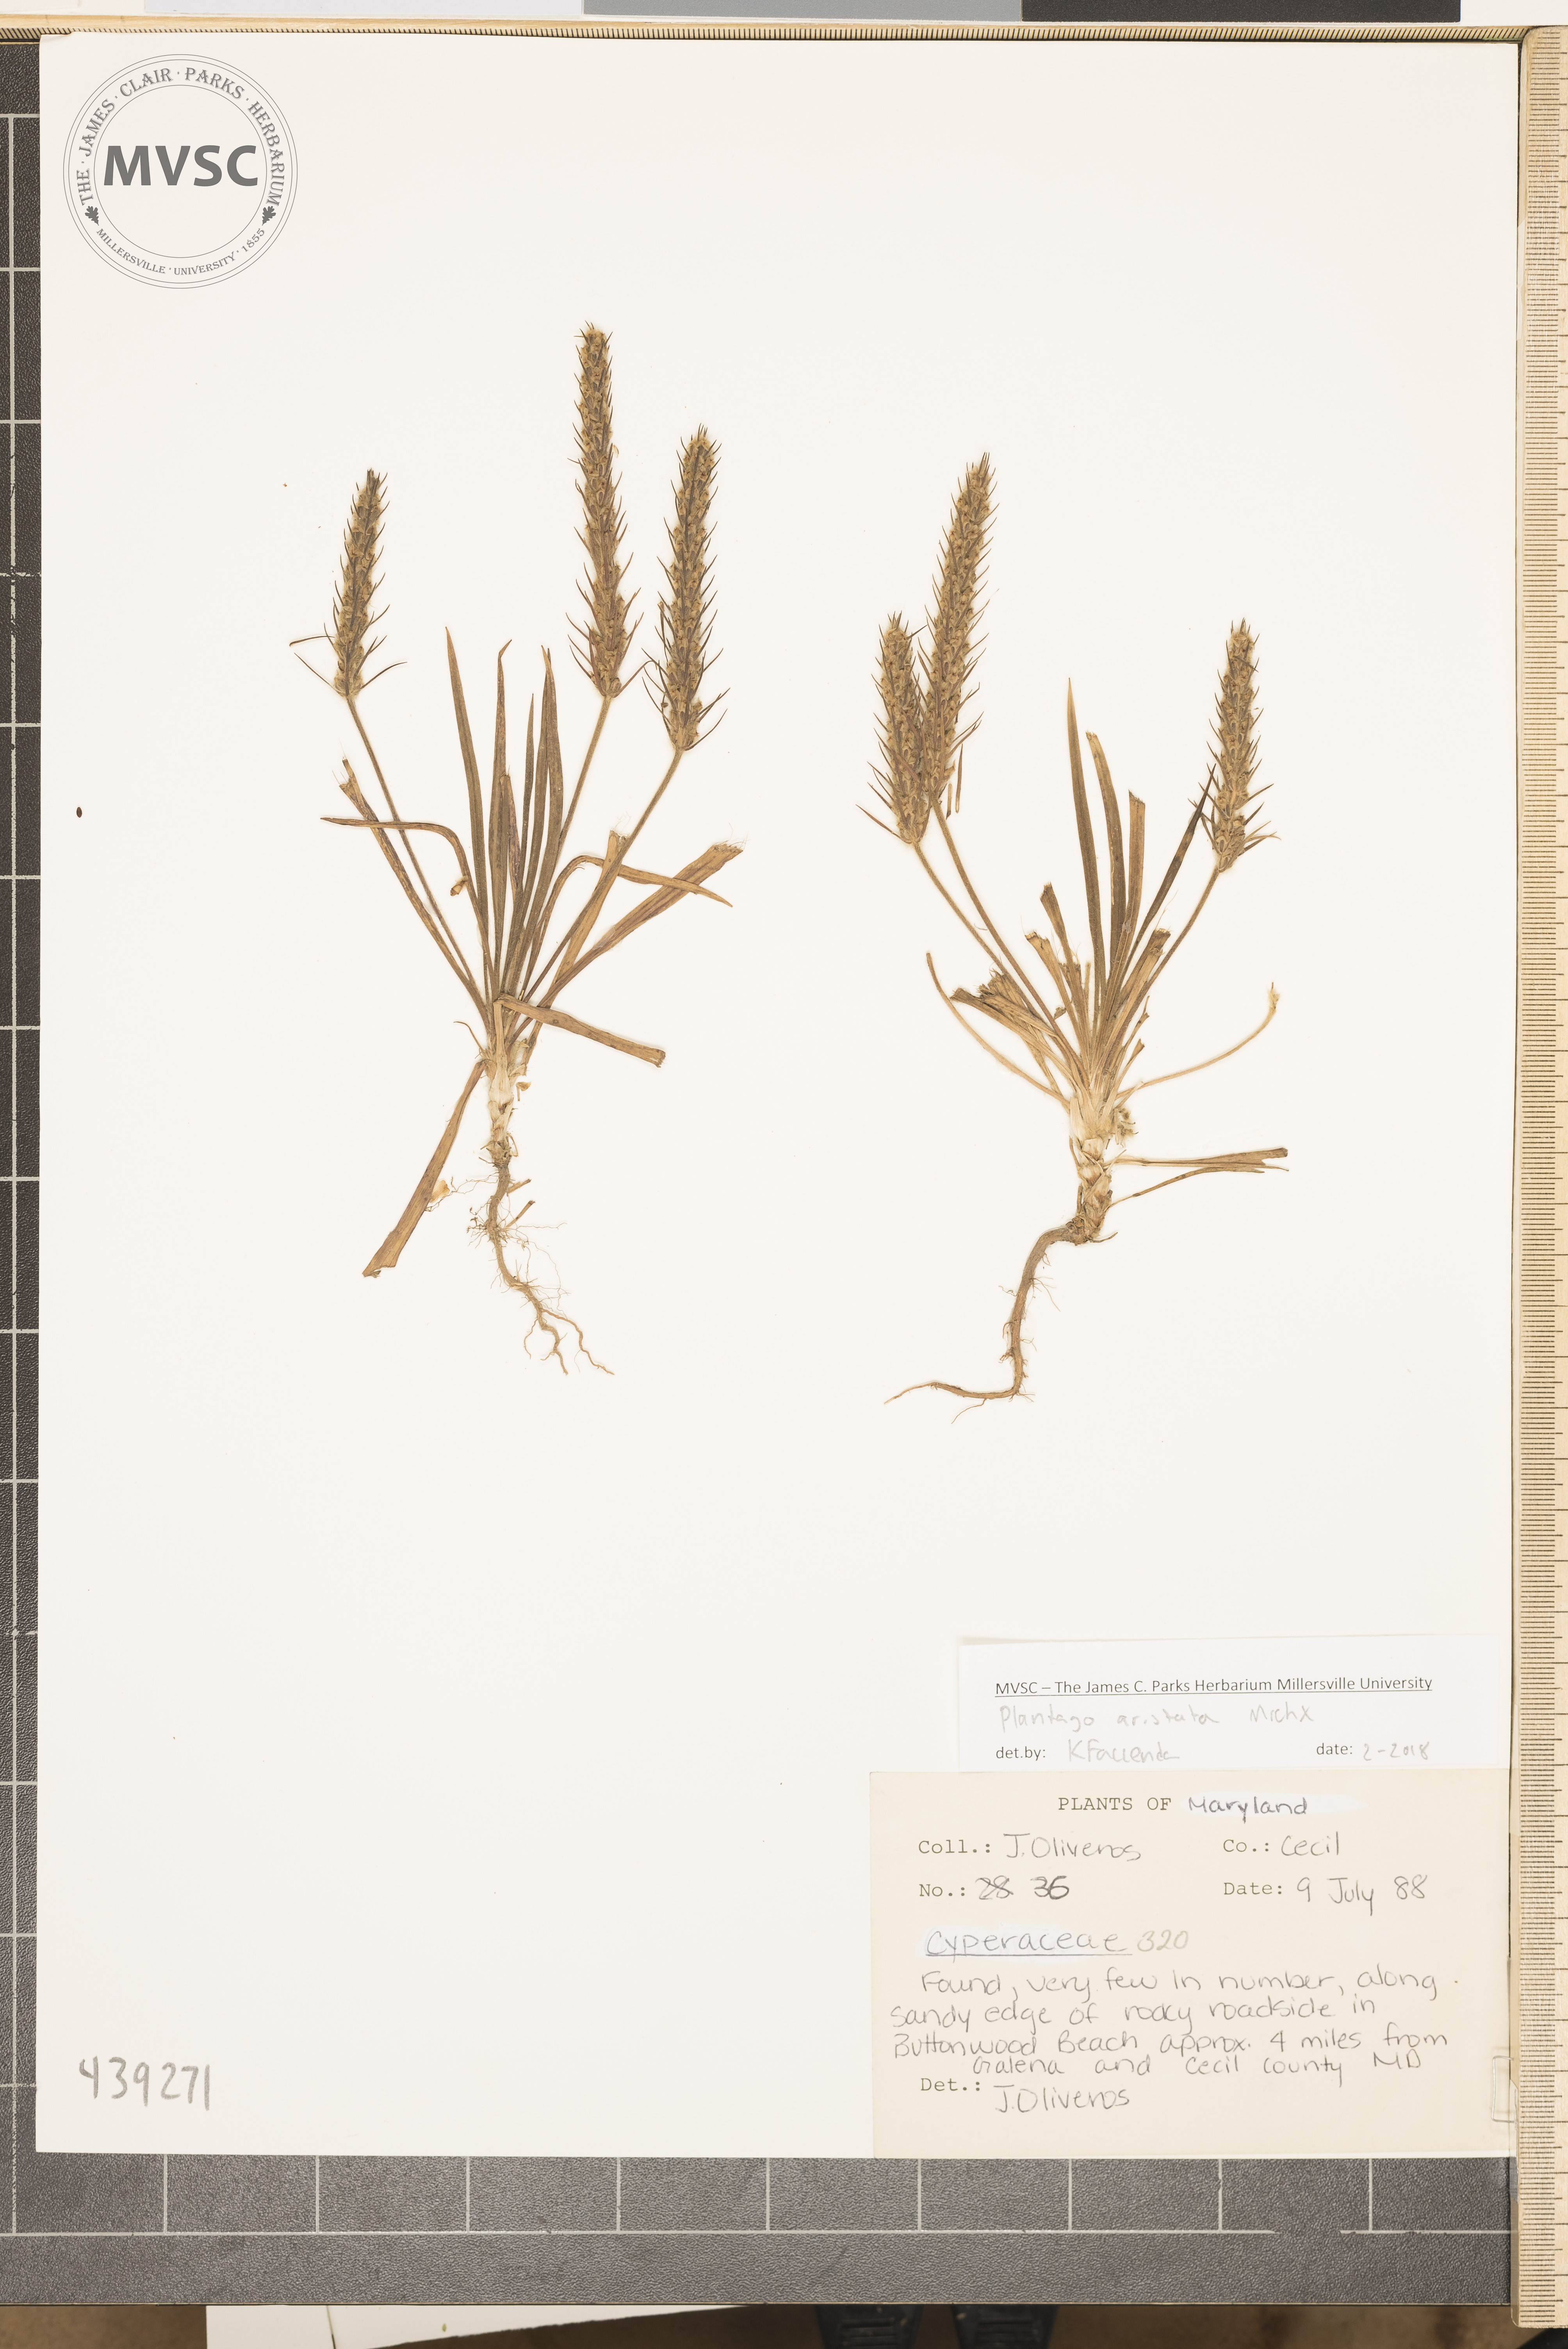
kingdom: Plantae
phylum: Tracheophyta
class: Magnoliopsida
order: Lamiales
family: Plantaginaceae
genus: Plantago
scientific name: Plantago aristata
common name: Bracted plantain
